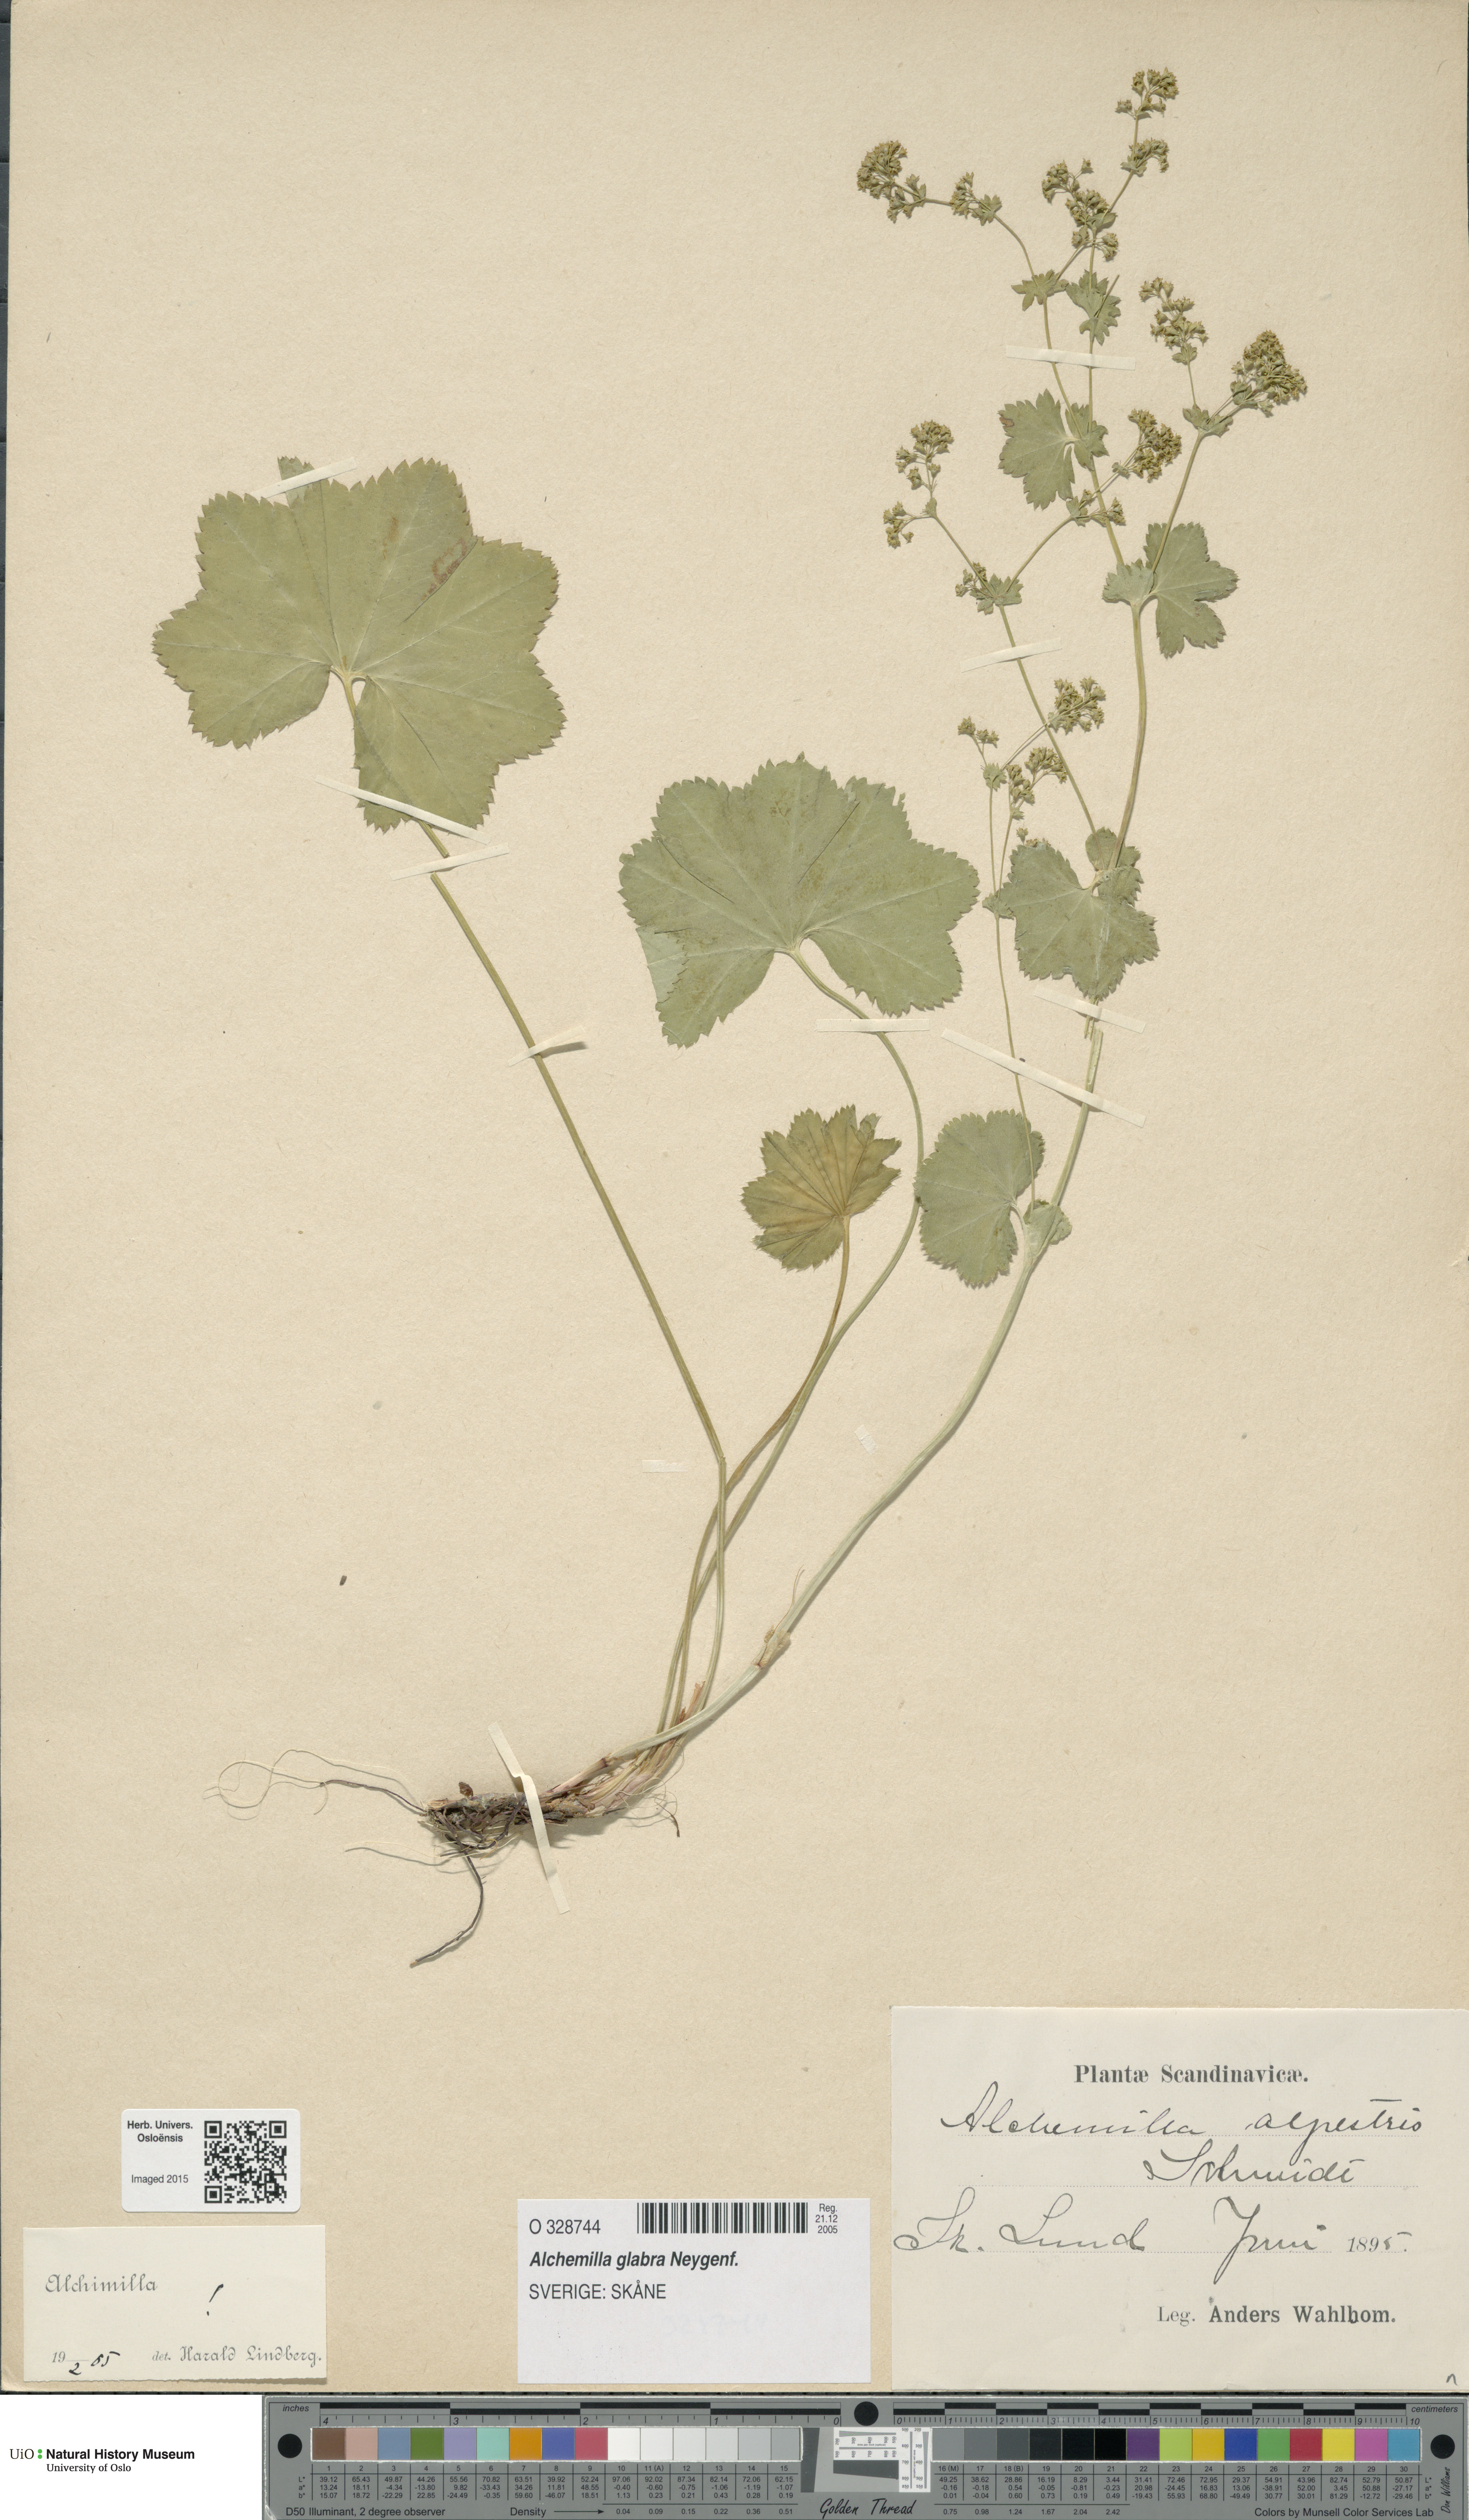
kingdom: Plantae
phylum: Tracheophyta
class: Magnoliopsida
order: Rosales
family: Rosaceae
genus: Alchemilla
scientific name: Alchemilla glabra
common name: Smooth lady's-mantle
